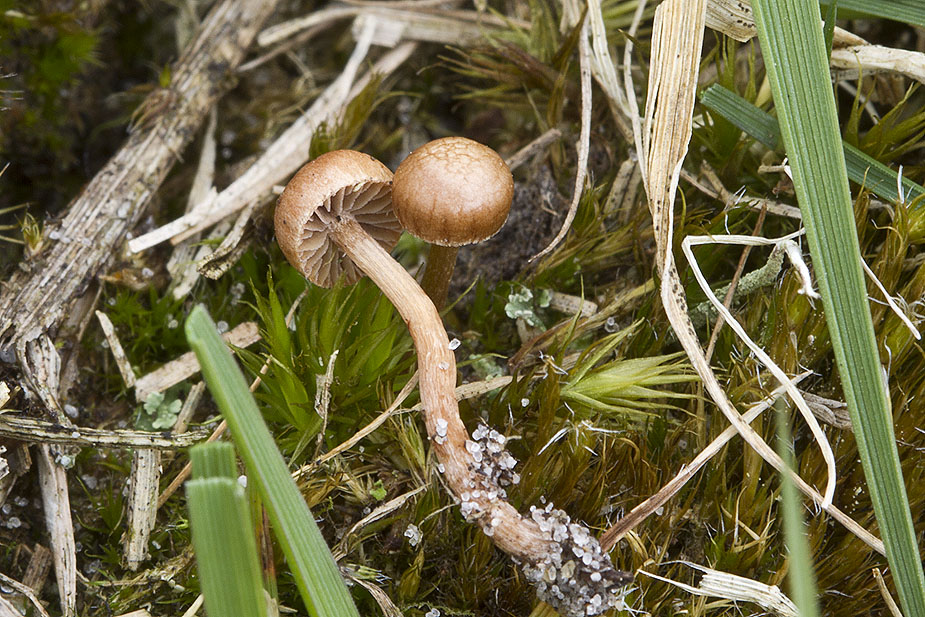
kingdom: Fungi
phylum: Basidiomycota
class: Agaricomycetes
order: Agaricales
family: Strophariaceae
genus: Deconica
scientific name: Deconica montana
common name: rødbrun stråhat
